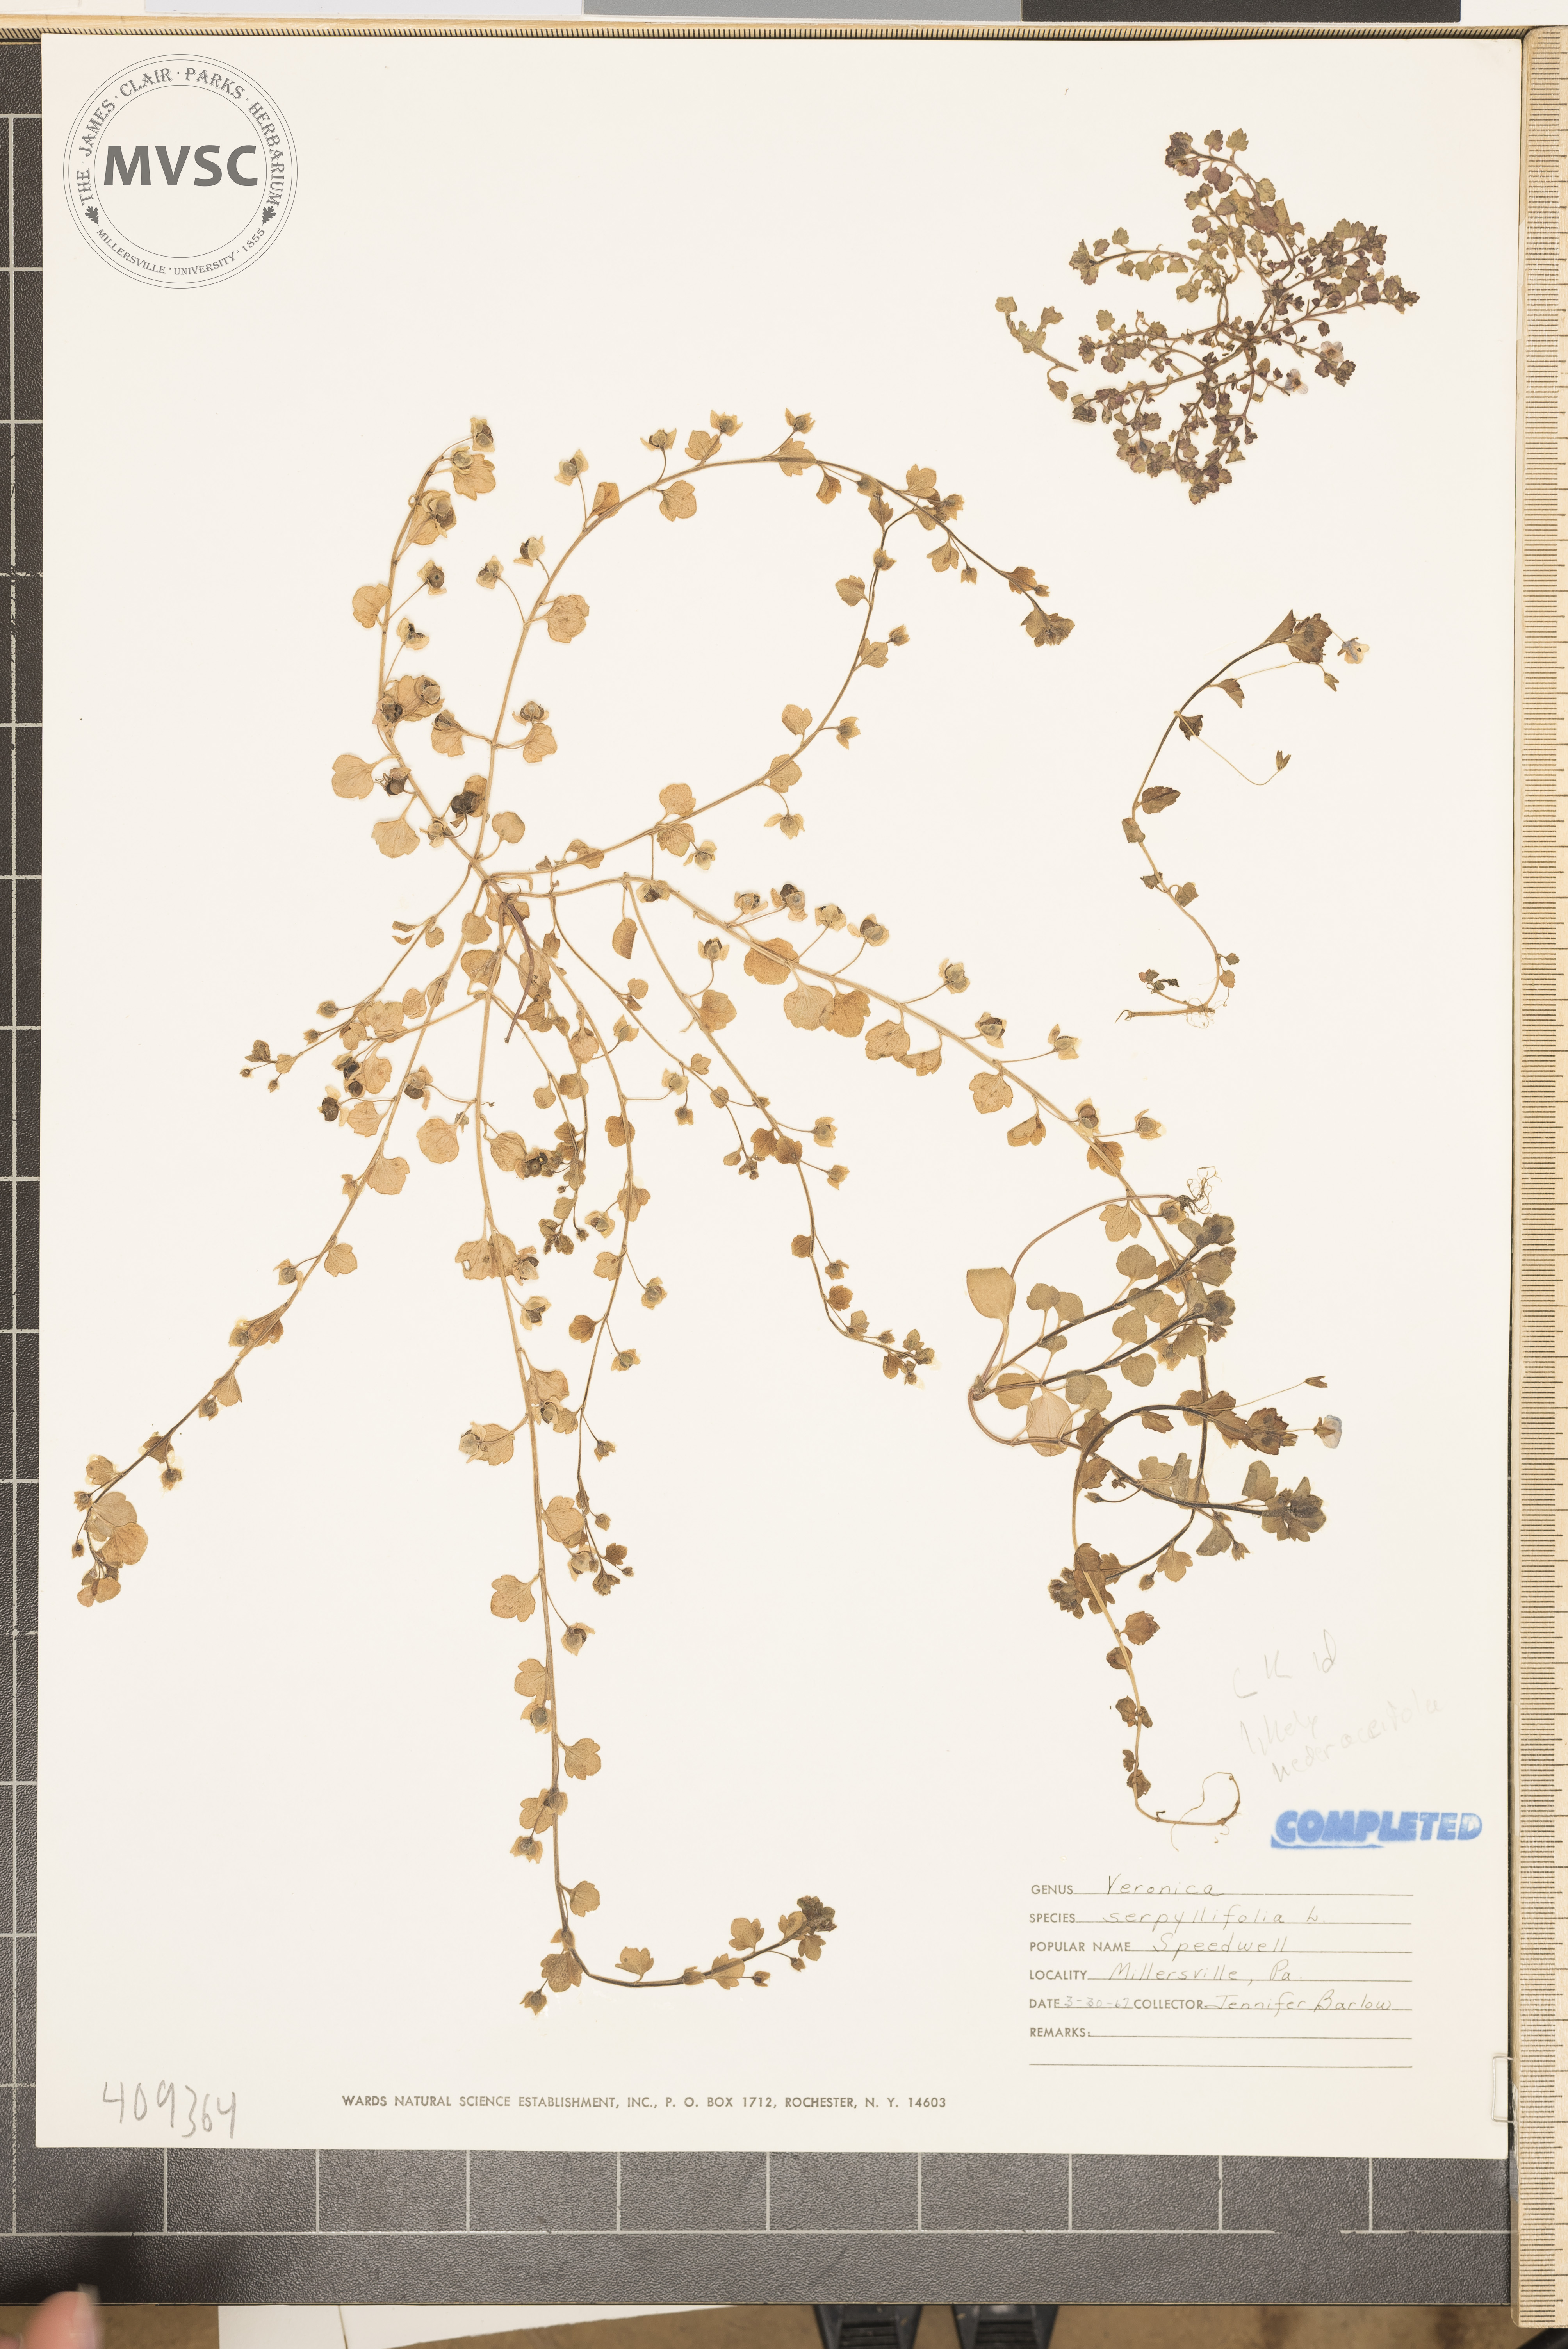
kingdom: Plantae
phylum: Tracheophyta
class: Magnoliopsida
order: Lamiales
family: Plantaginaceae
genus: Veronica
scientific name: Veronica hederifolia
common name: Ivy-leaved speedwell
